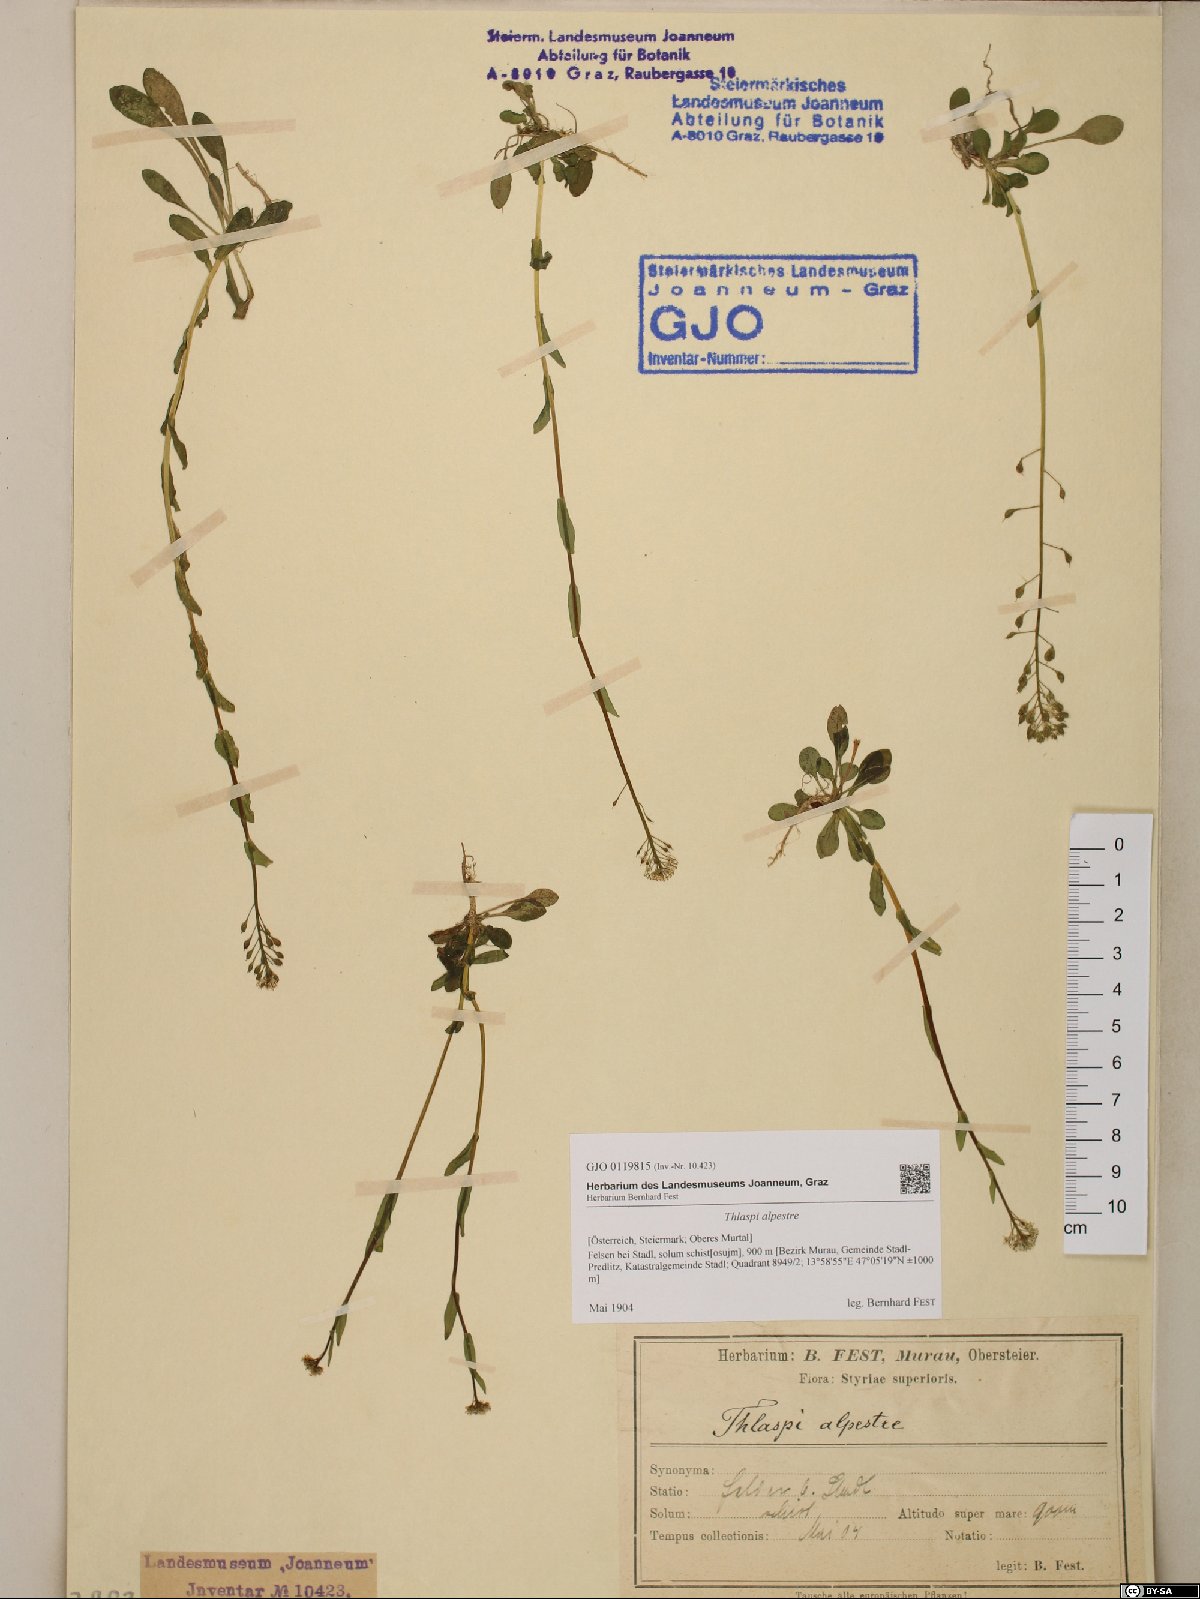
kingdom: Plantae
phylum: Tracheophyta
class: Magnoliopsida
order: Brassicales
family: Brassicaceae
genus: Noccaea
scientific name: Noccaea alpestris
